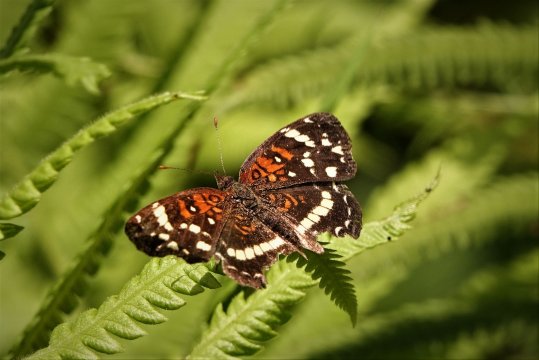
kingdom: Animalia
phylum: Arthropoda
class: Insecta
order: Lepidoptera
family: Nymphalidae
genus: Anthanassa
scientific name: Anthanassa texana
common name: Texan Crescent
